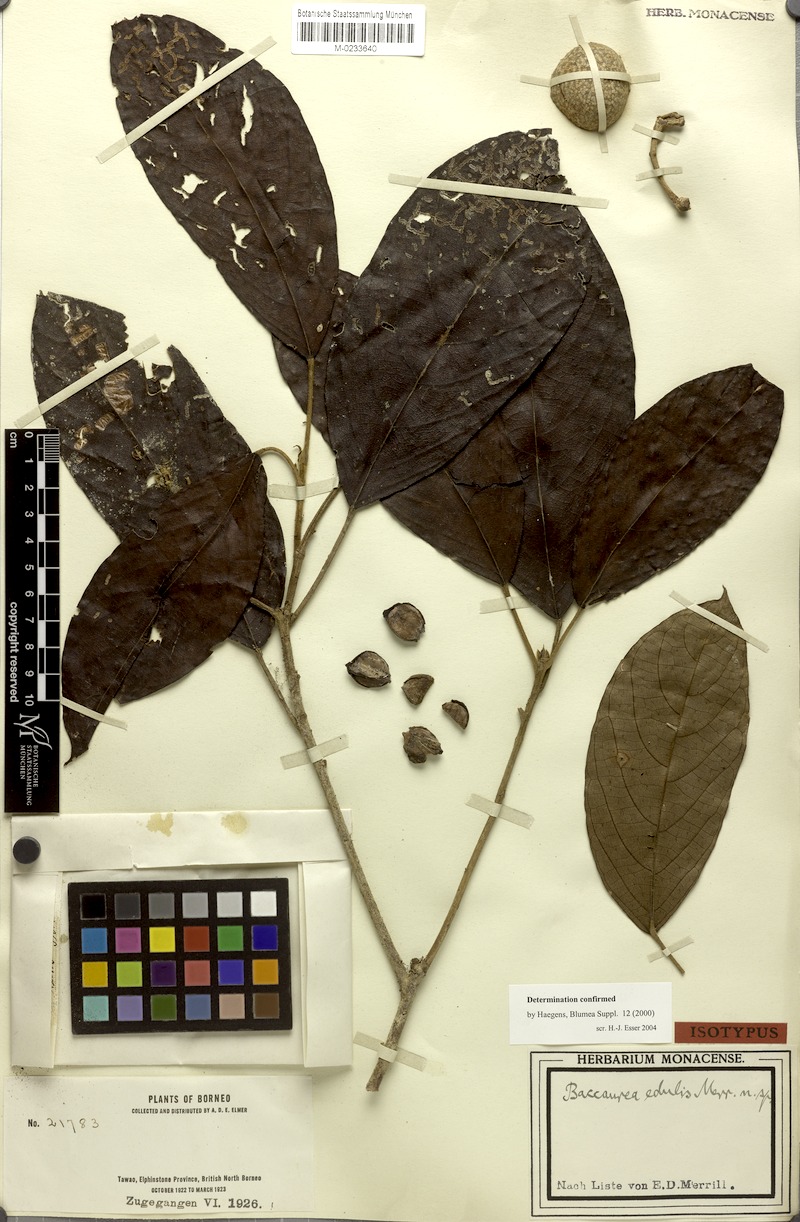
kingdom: Plantae
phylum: Tracheophyta
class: Magnoliopsida
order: Malpighiales
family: Phyllanthaceae
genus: Baccaurea
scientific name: Baccaurea edulis
